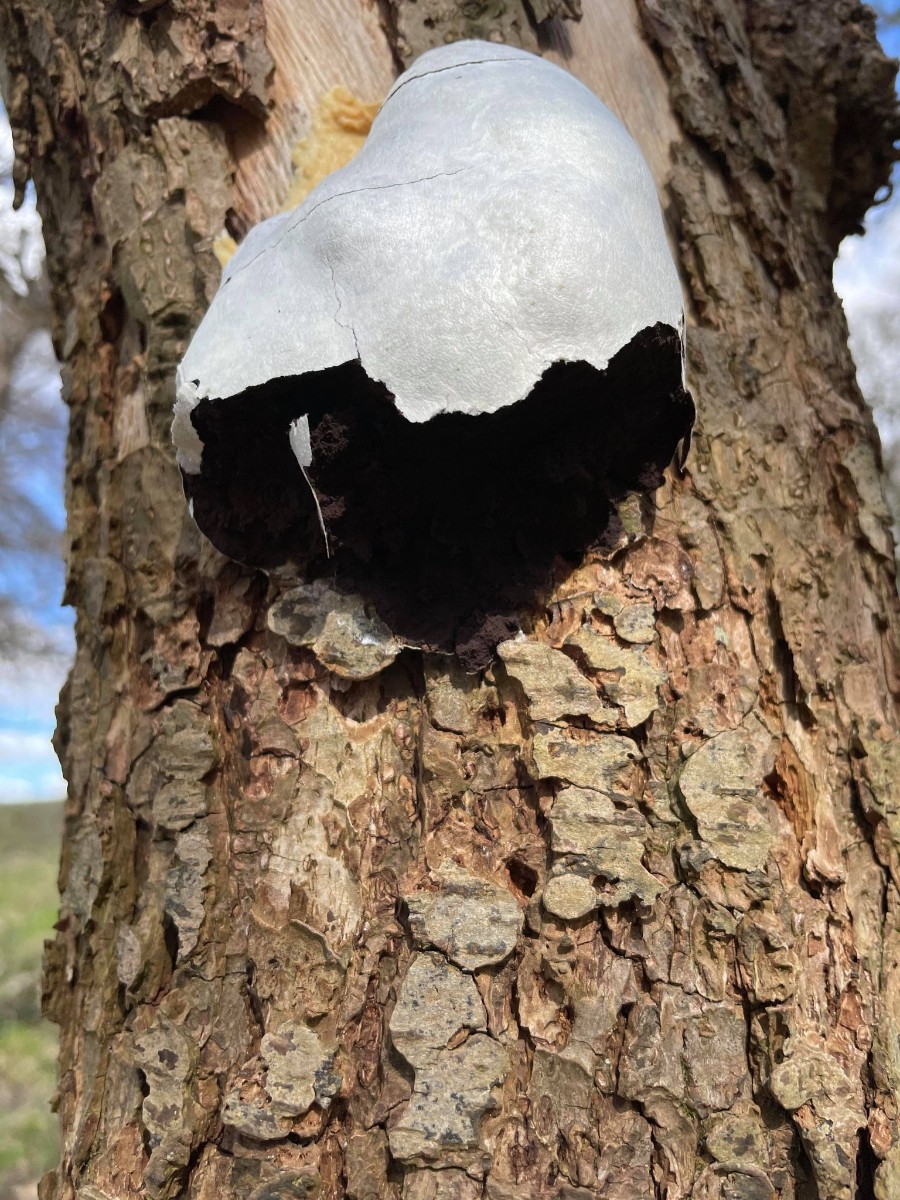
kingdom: Protozoa
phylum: Mycetozoa
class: Myxomycetes
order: Cribrariales
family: Tubiferaceae
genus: Reticularia
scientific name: Reticularia lycoperdon
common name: skinnende støvpude
